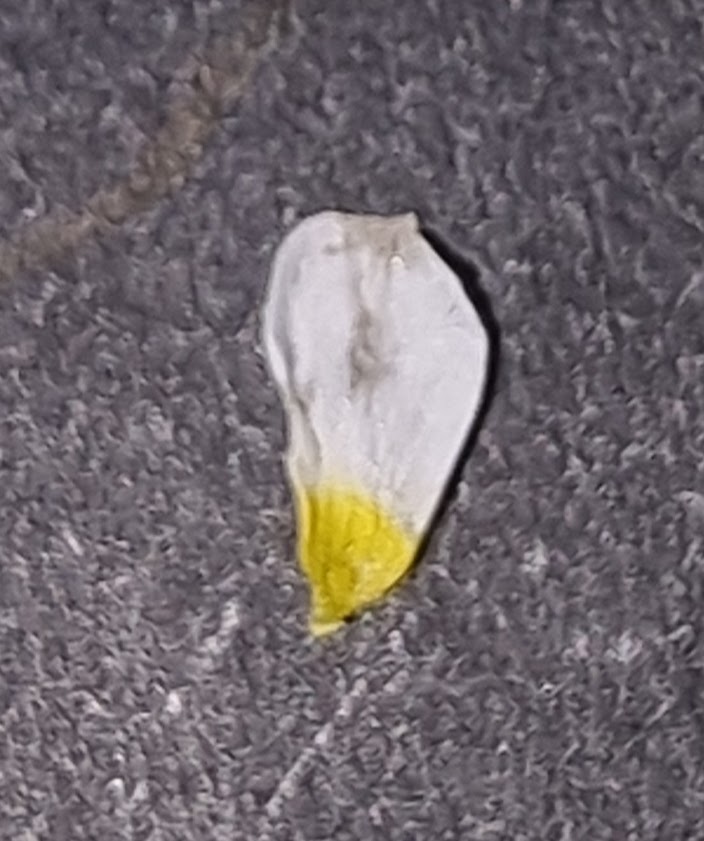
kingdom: Plantae
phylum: Tracheophyta
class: Magnoliopsida
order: Ranunculales
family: Ranunculaceae
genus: Ranunculus
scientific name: Ranunculus
